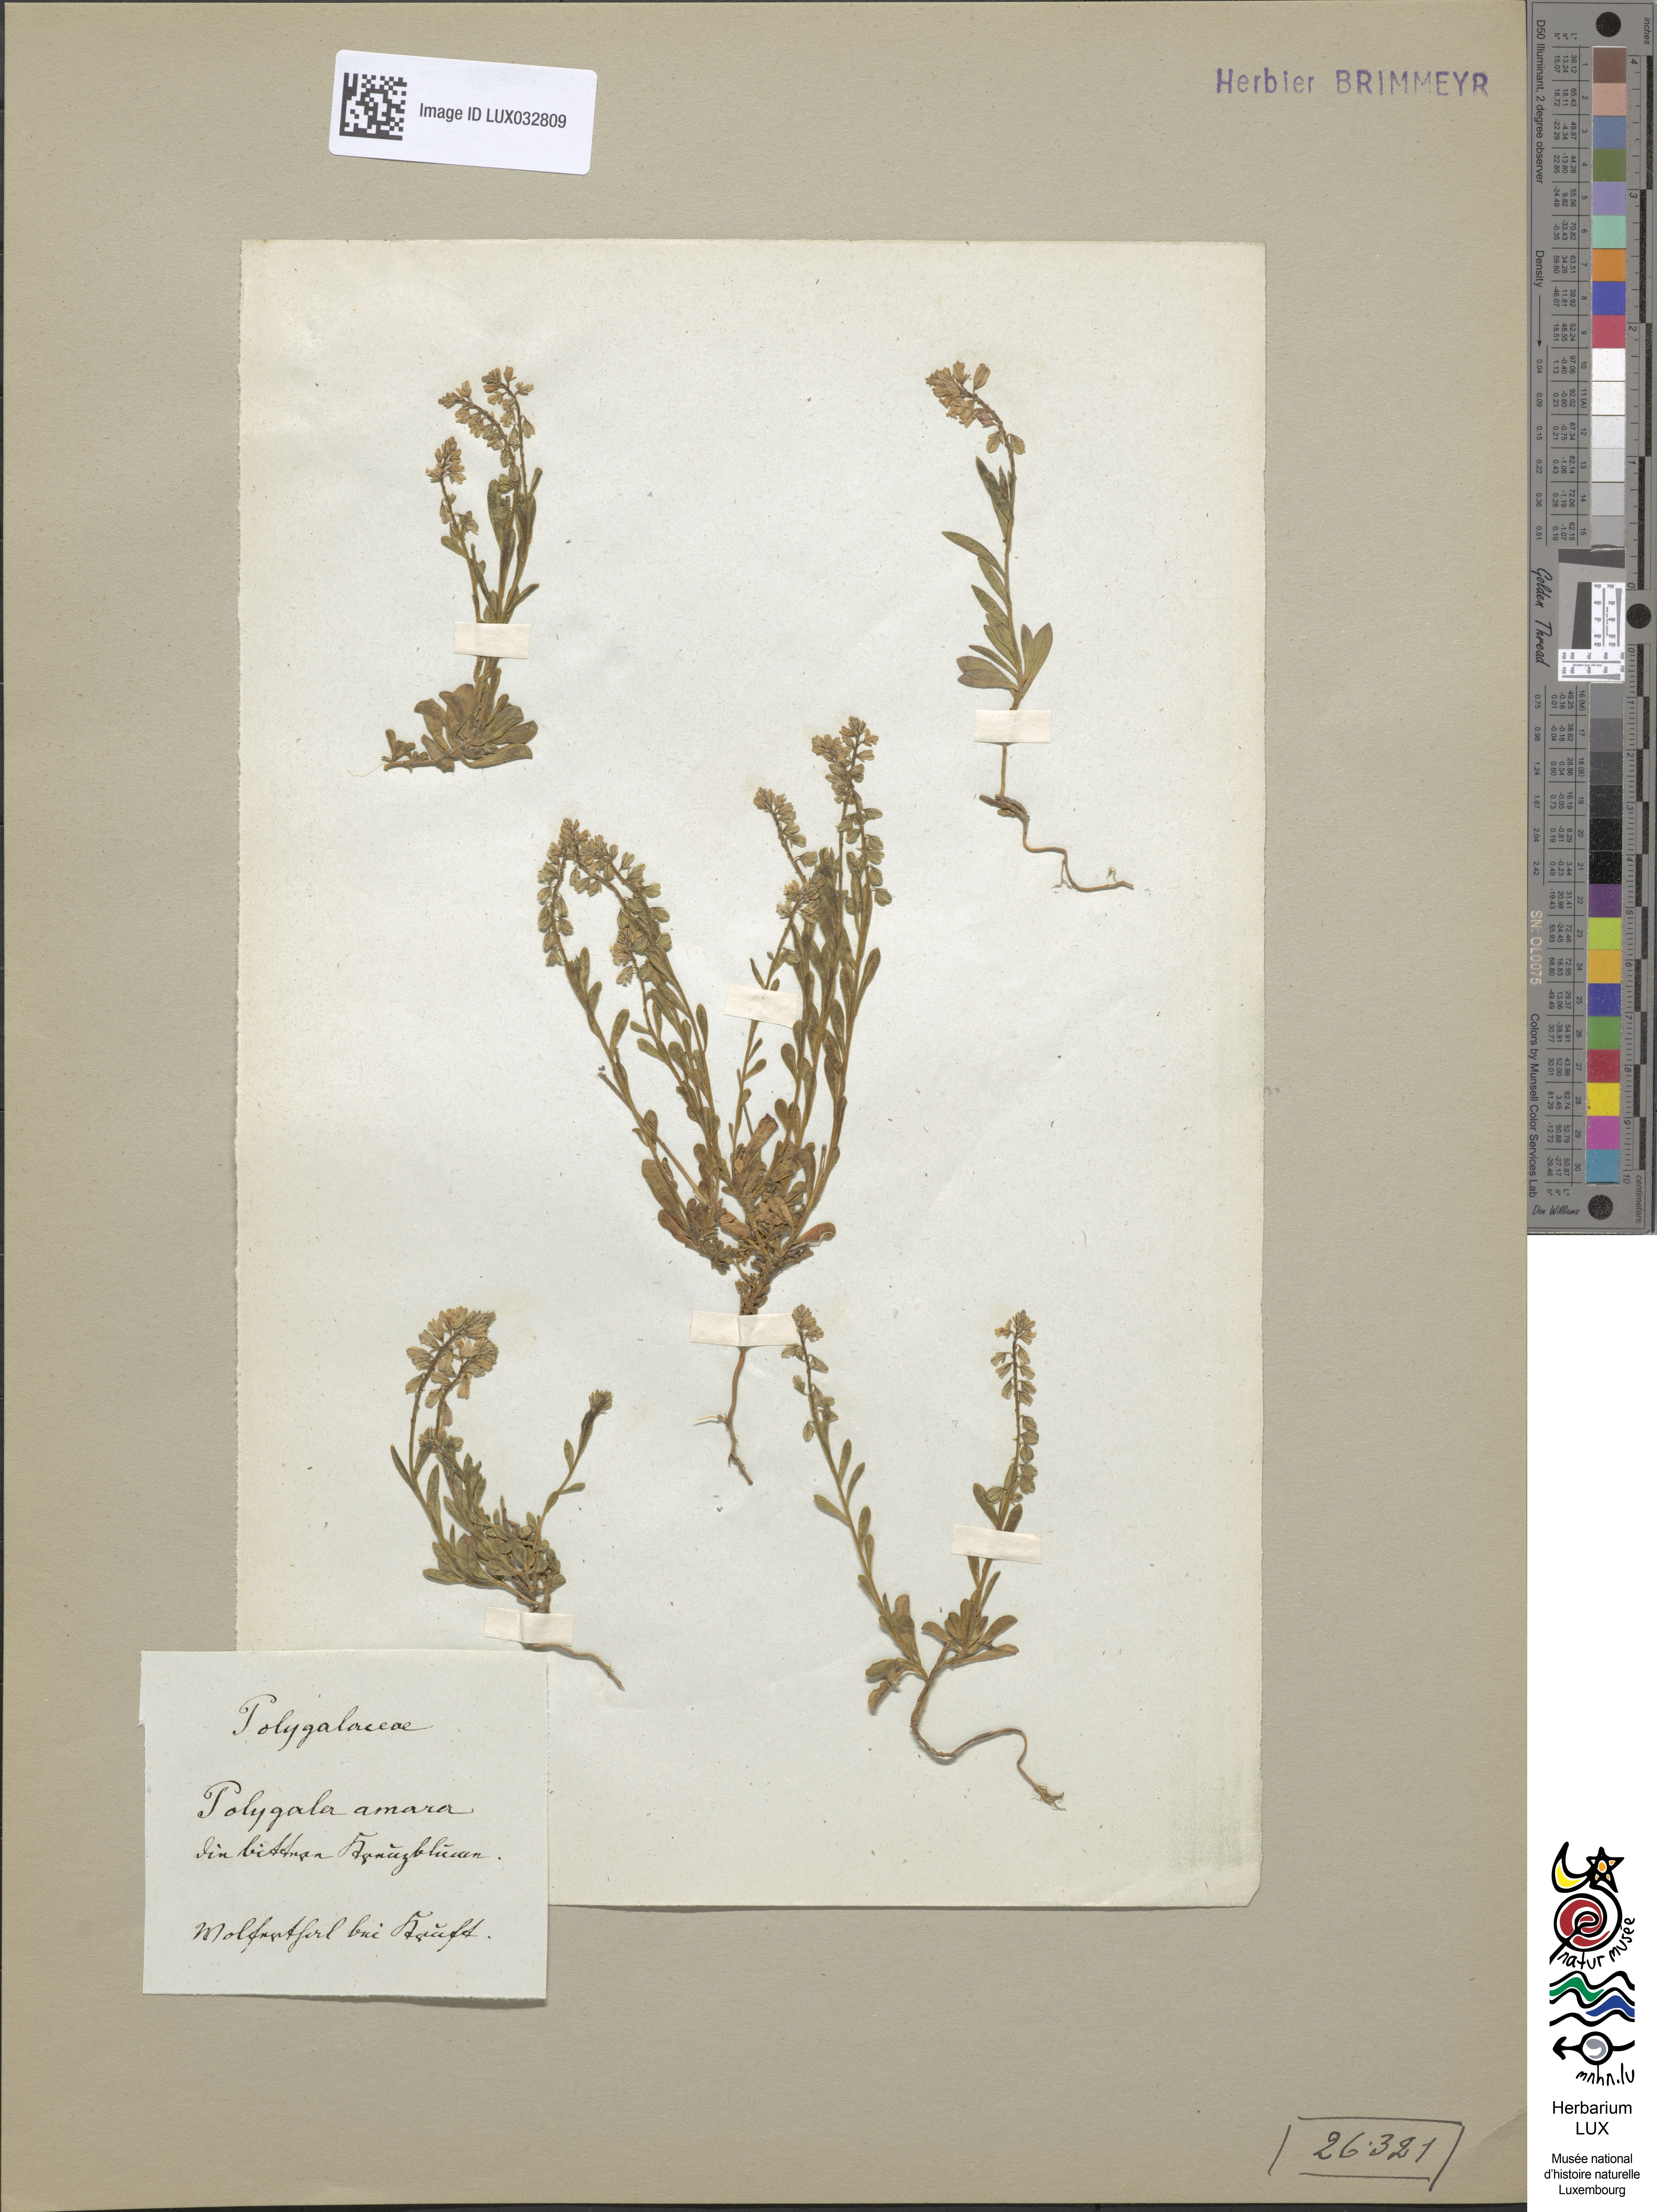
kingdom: Plantae
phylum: Tracheophyta
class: Magnoliopsida
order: Fabales
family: Polygalaceae
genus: Polygala
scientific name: Polygala amara
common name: Milkwort
